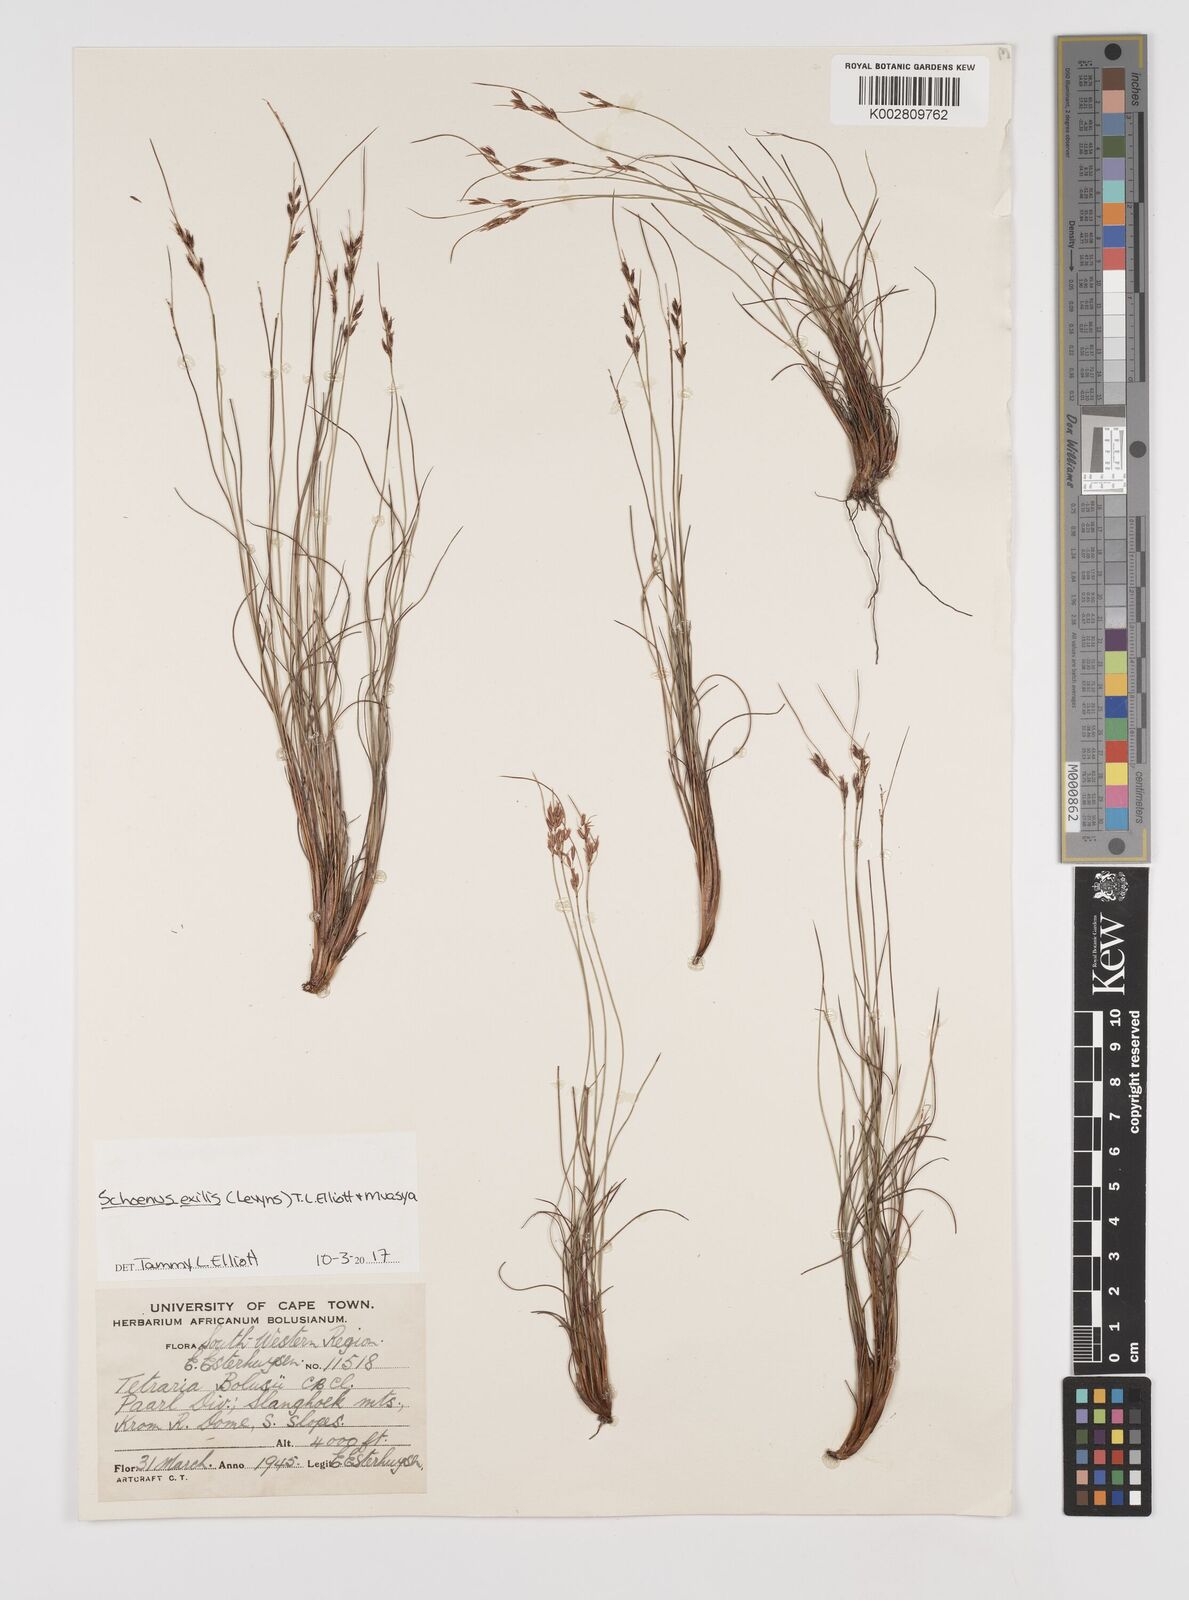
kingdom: Plantae
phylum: Tracheophyta
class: Liliopsida
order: Poales
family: Cyperaceae
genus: Schoenus
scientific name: Schoenus exilis
